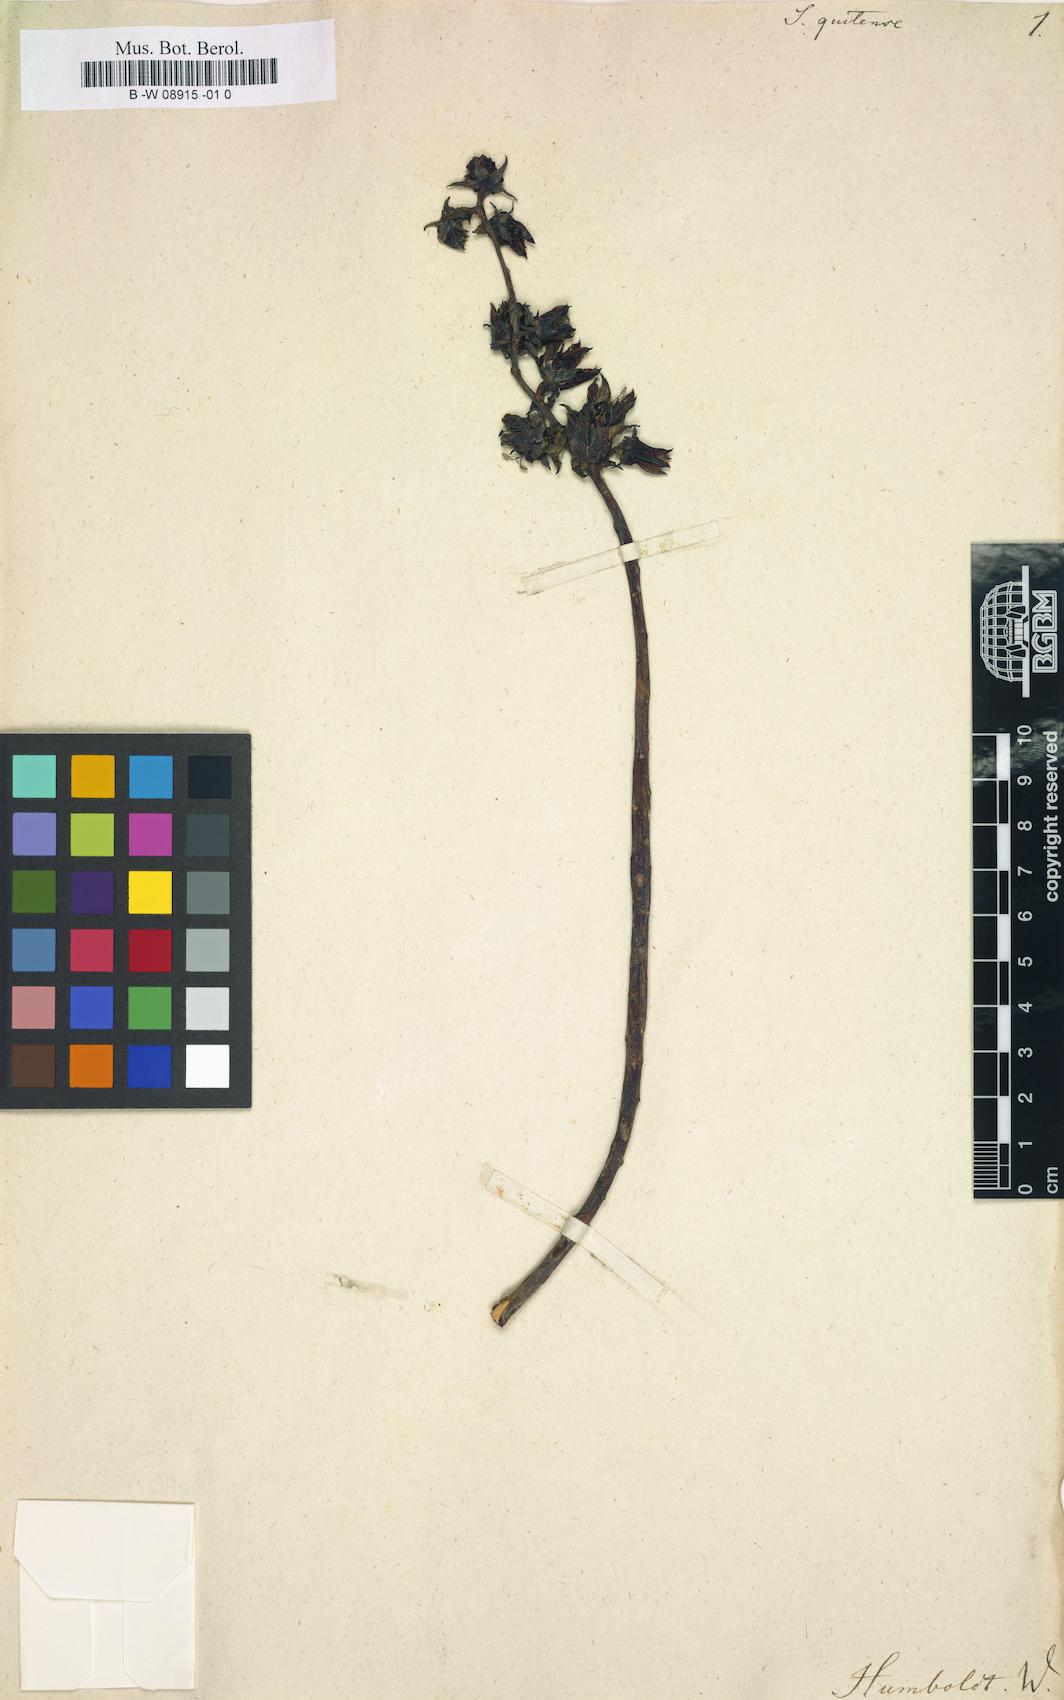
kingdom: Plantae
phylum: Tracheophyta
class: Magnoliopsida
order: Saxifragales
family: Crassulaceae
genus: Echeveria
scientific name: Echeveria quitensis
